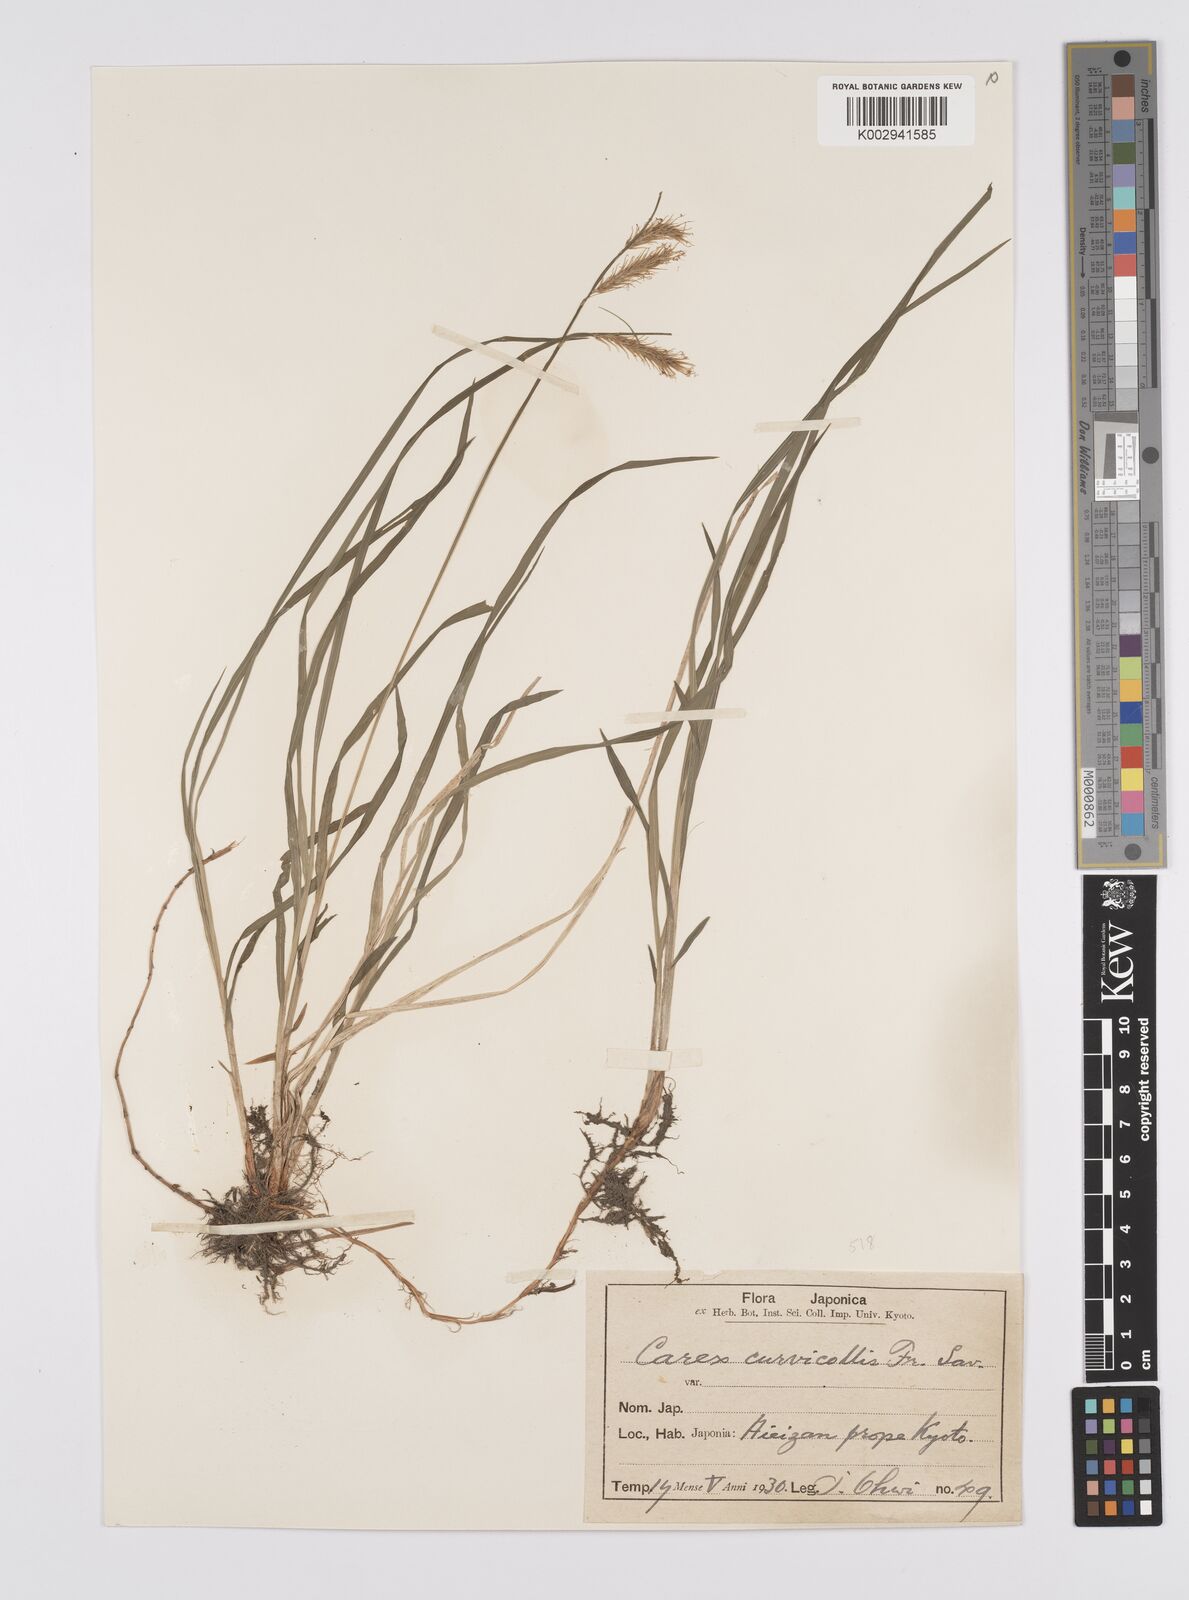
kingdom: Plantae
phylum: Tracheophyta
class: Liliopsida
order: Poales
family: Cyperaceae
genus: Carex
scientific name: Carex curvicollis
